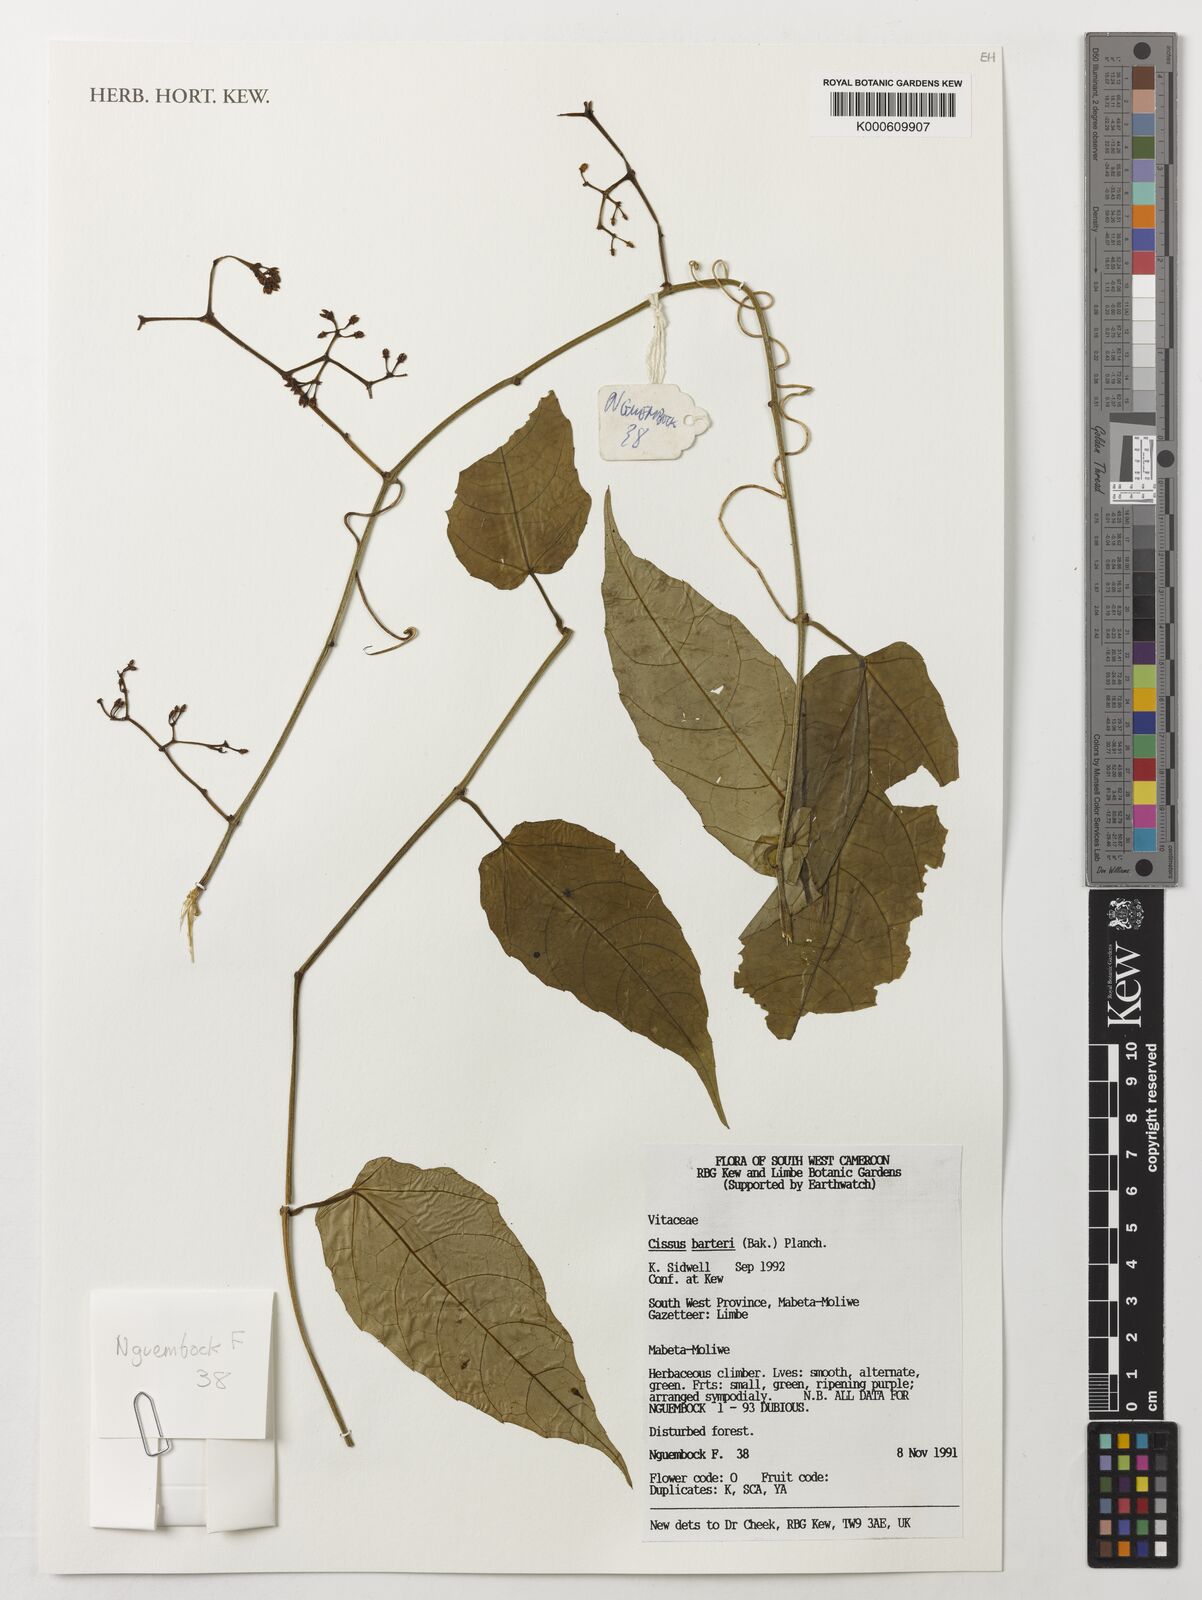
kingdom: Plantae
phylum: Tracheophyta
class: Magnoliopsida
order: Vitales
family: Vitaceae
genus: Cissus
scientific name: Cissus barteri
